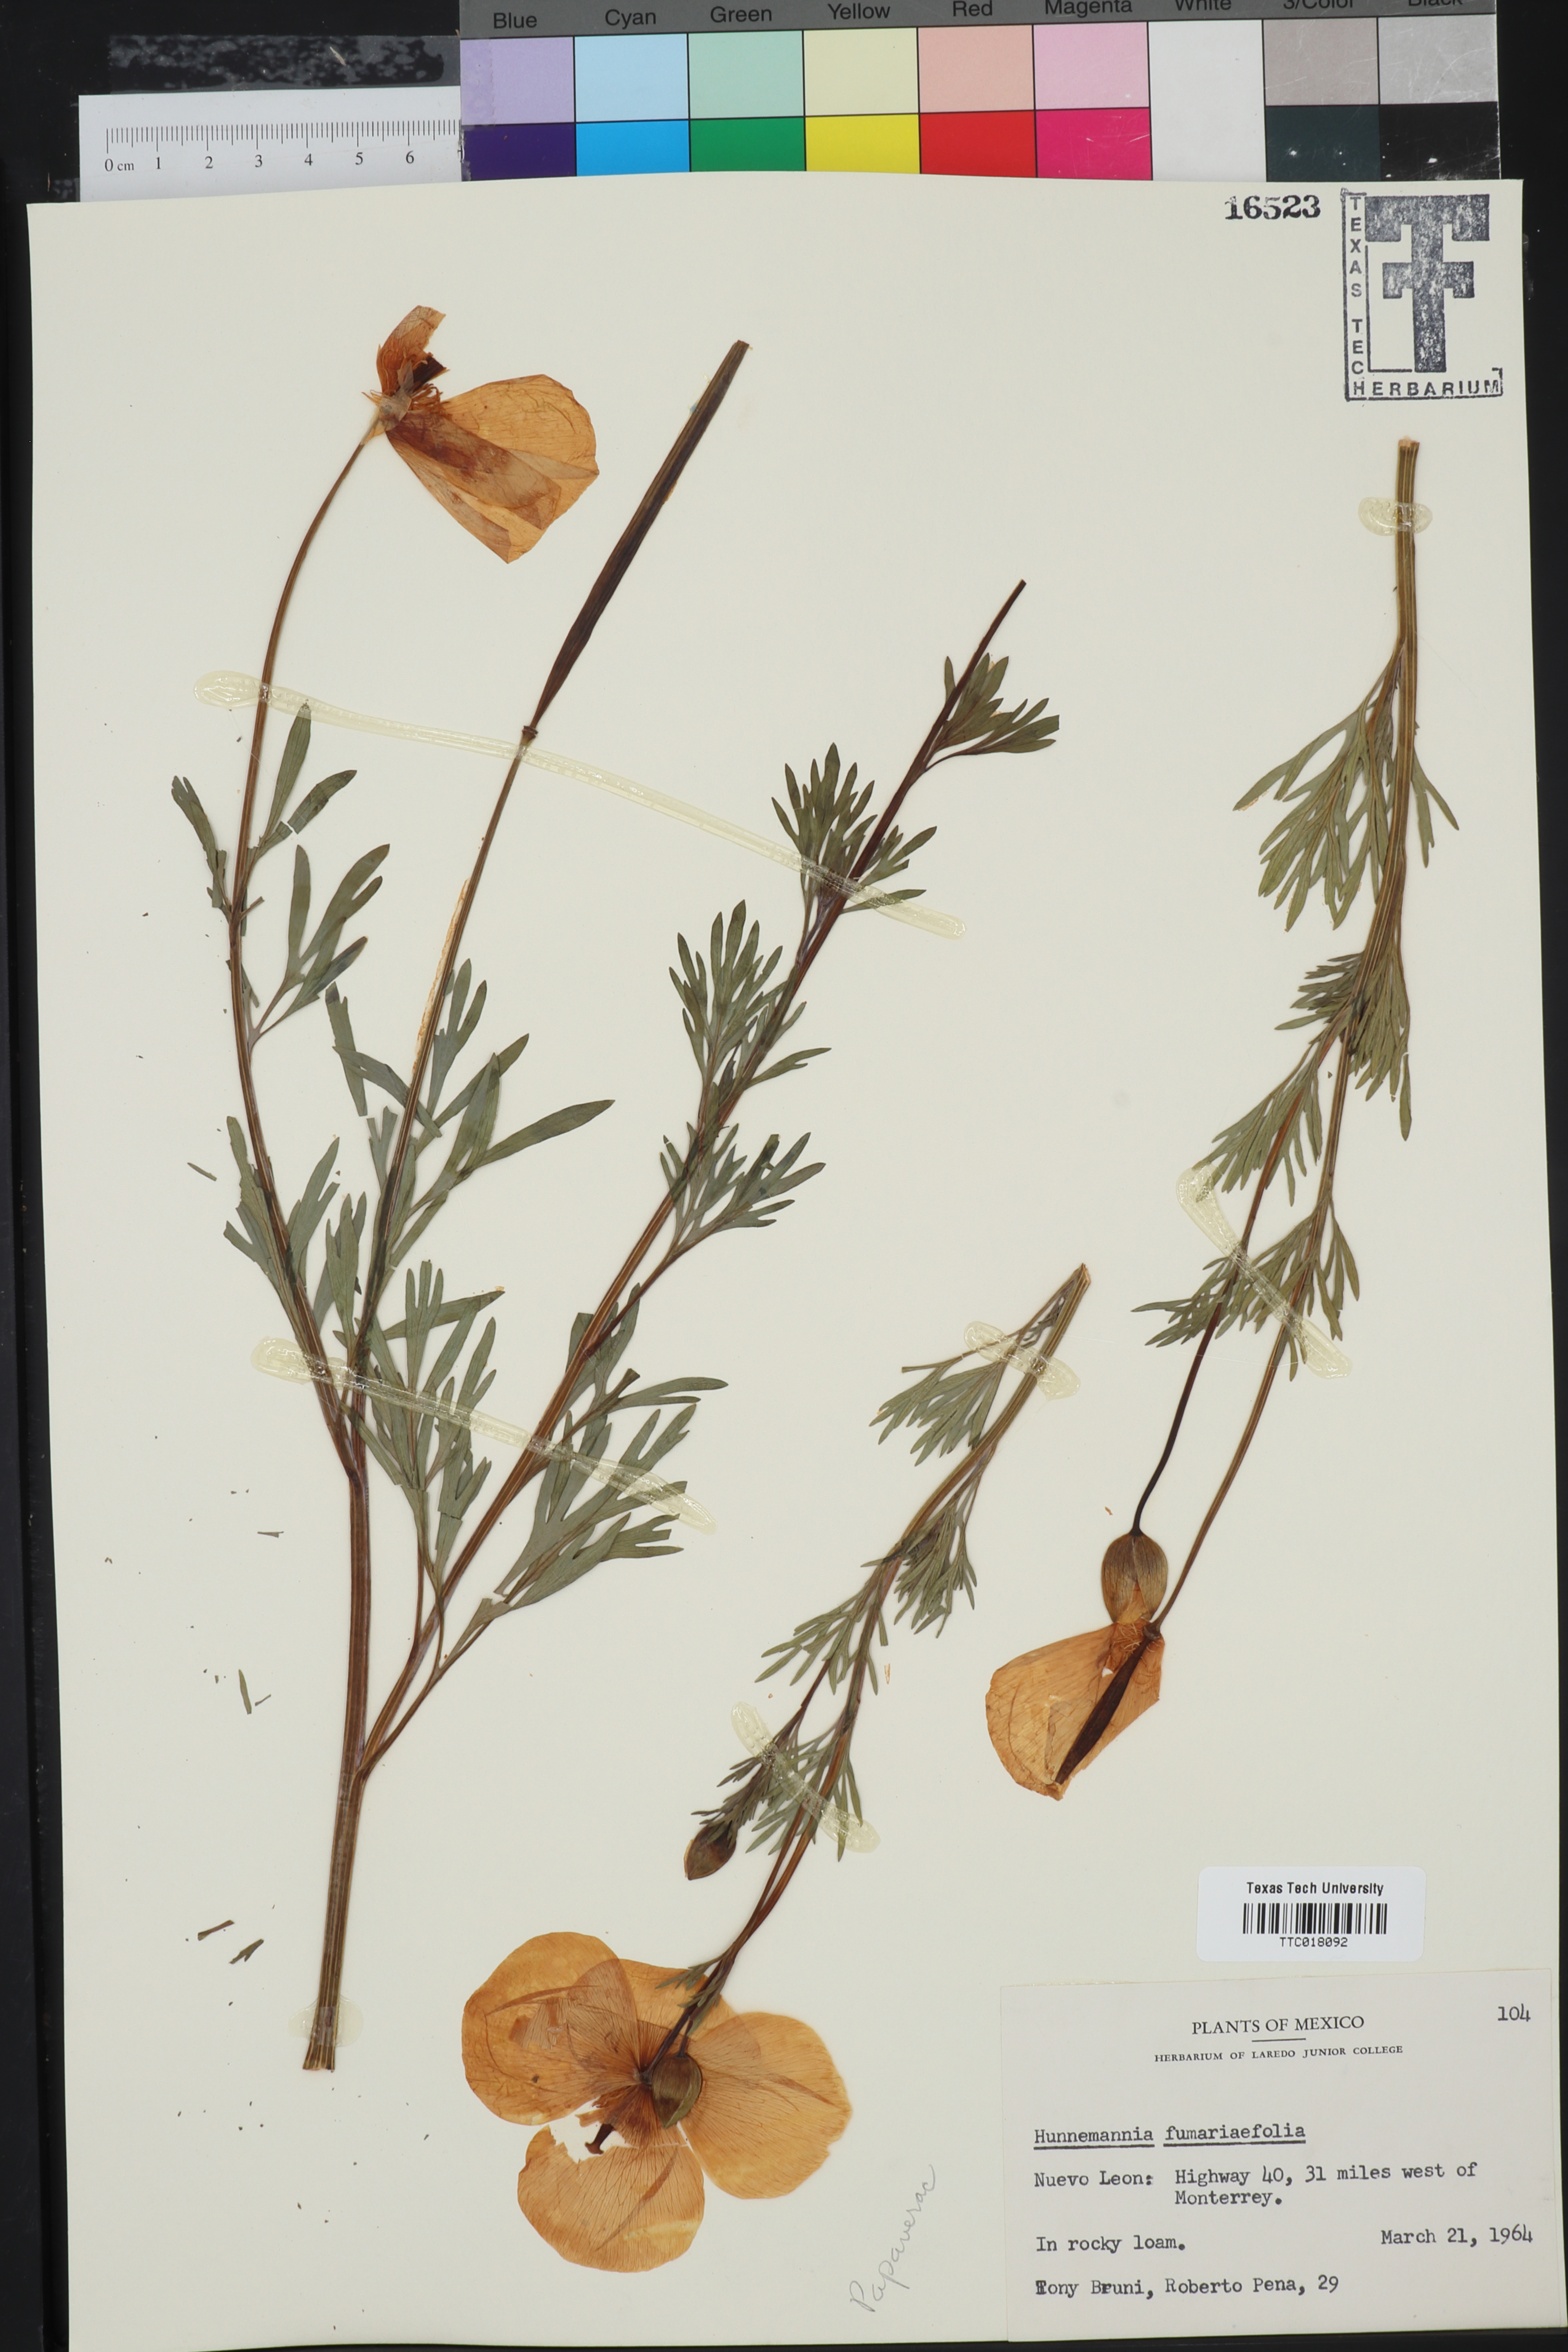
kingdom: Plantae
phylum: Tracheophyta
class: Magnoliopsida
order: Ranunculales
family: Papaveraceae
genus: Hunnemannia
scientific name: Hunnemannia fumariifolia
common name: Mexican tulip poppy
